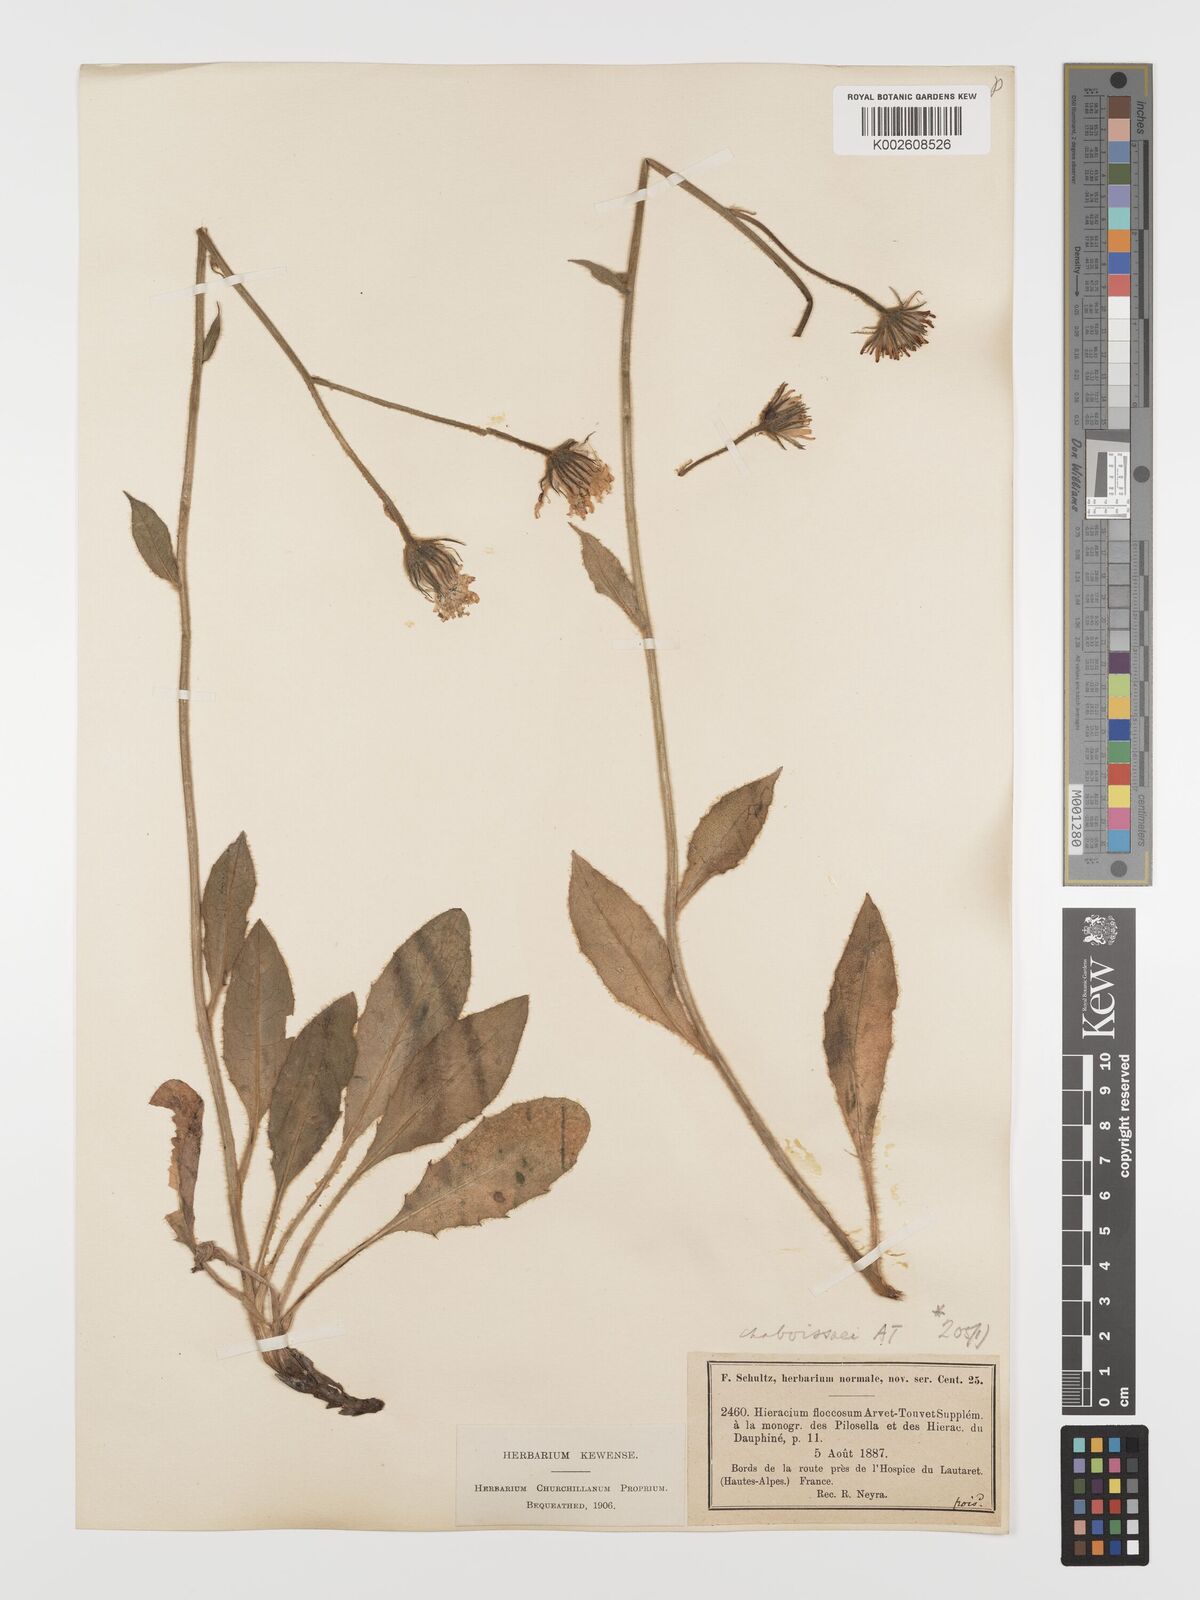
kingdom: Plantae
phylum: Tracheophyta
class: Magnoliopsida
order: Asterales
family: Asteraceae
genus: Hieracium
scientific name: Hieracium chaboissaei
